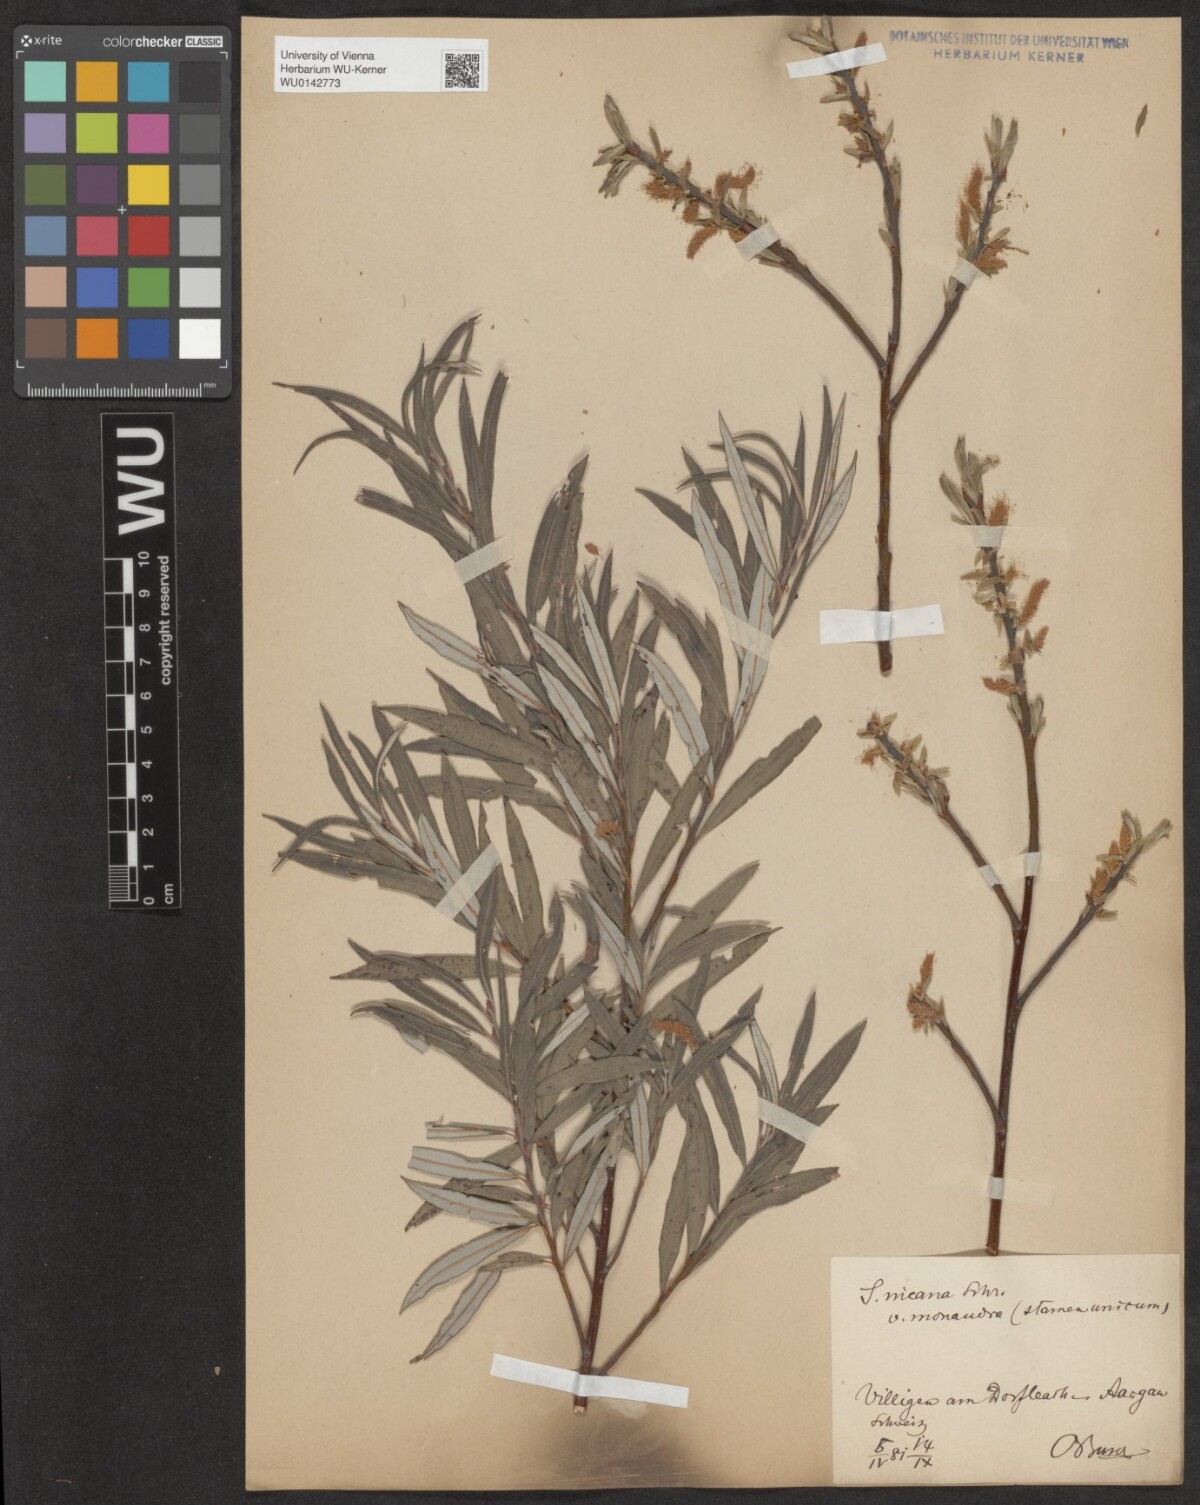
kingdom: Plantae
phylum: Tracheophyta
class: Magnoliopsida
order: Malpighiales
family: Salicaceae
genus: Salix
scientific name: Salix eleagnos
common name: Elaeagnus willow
